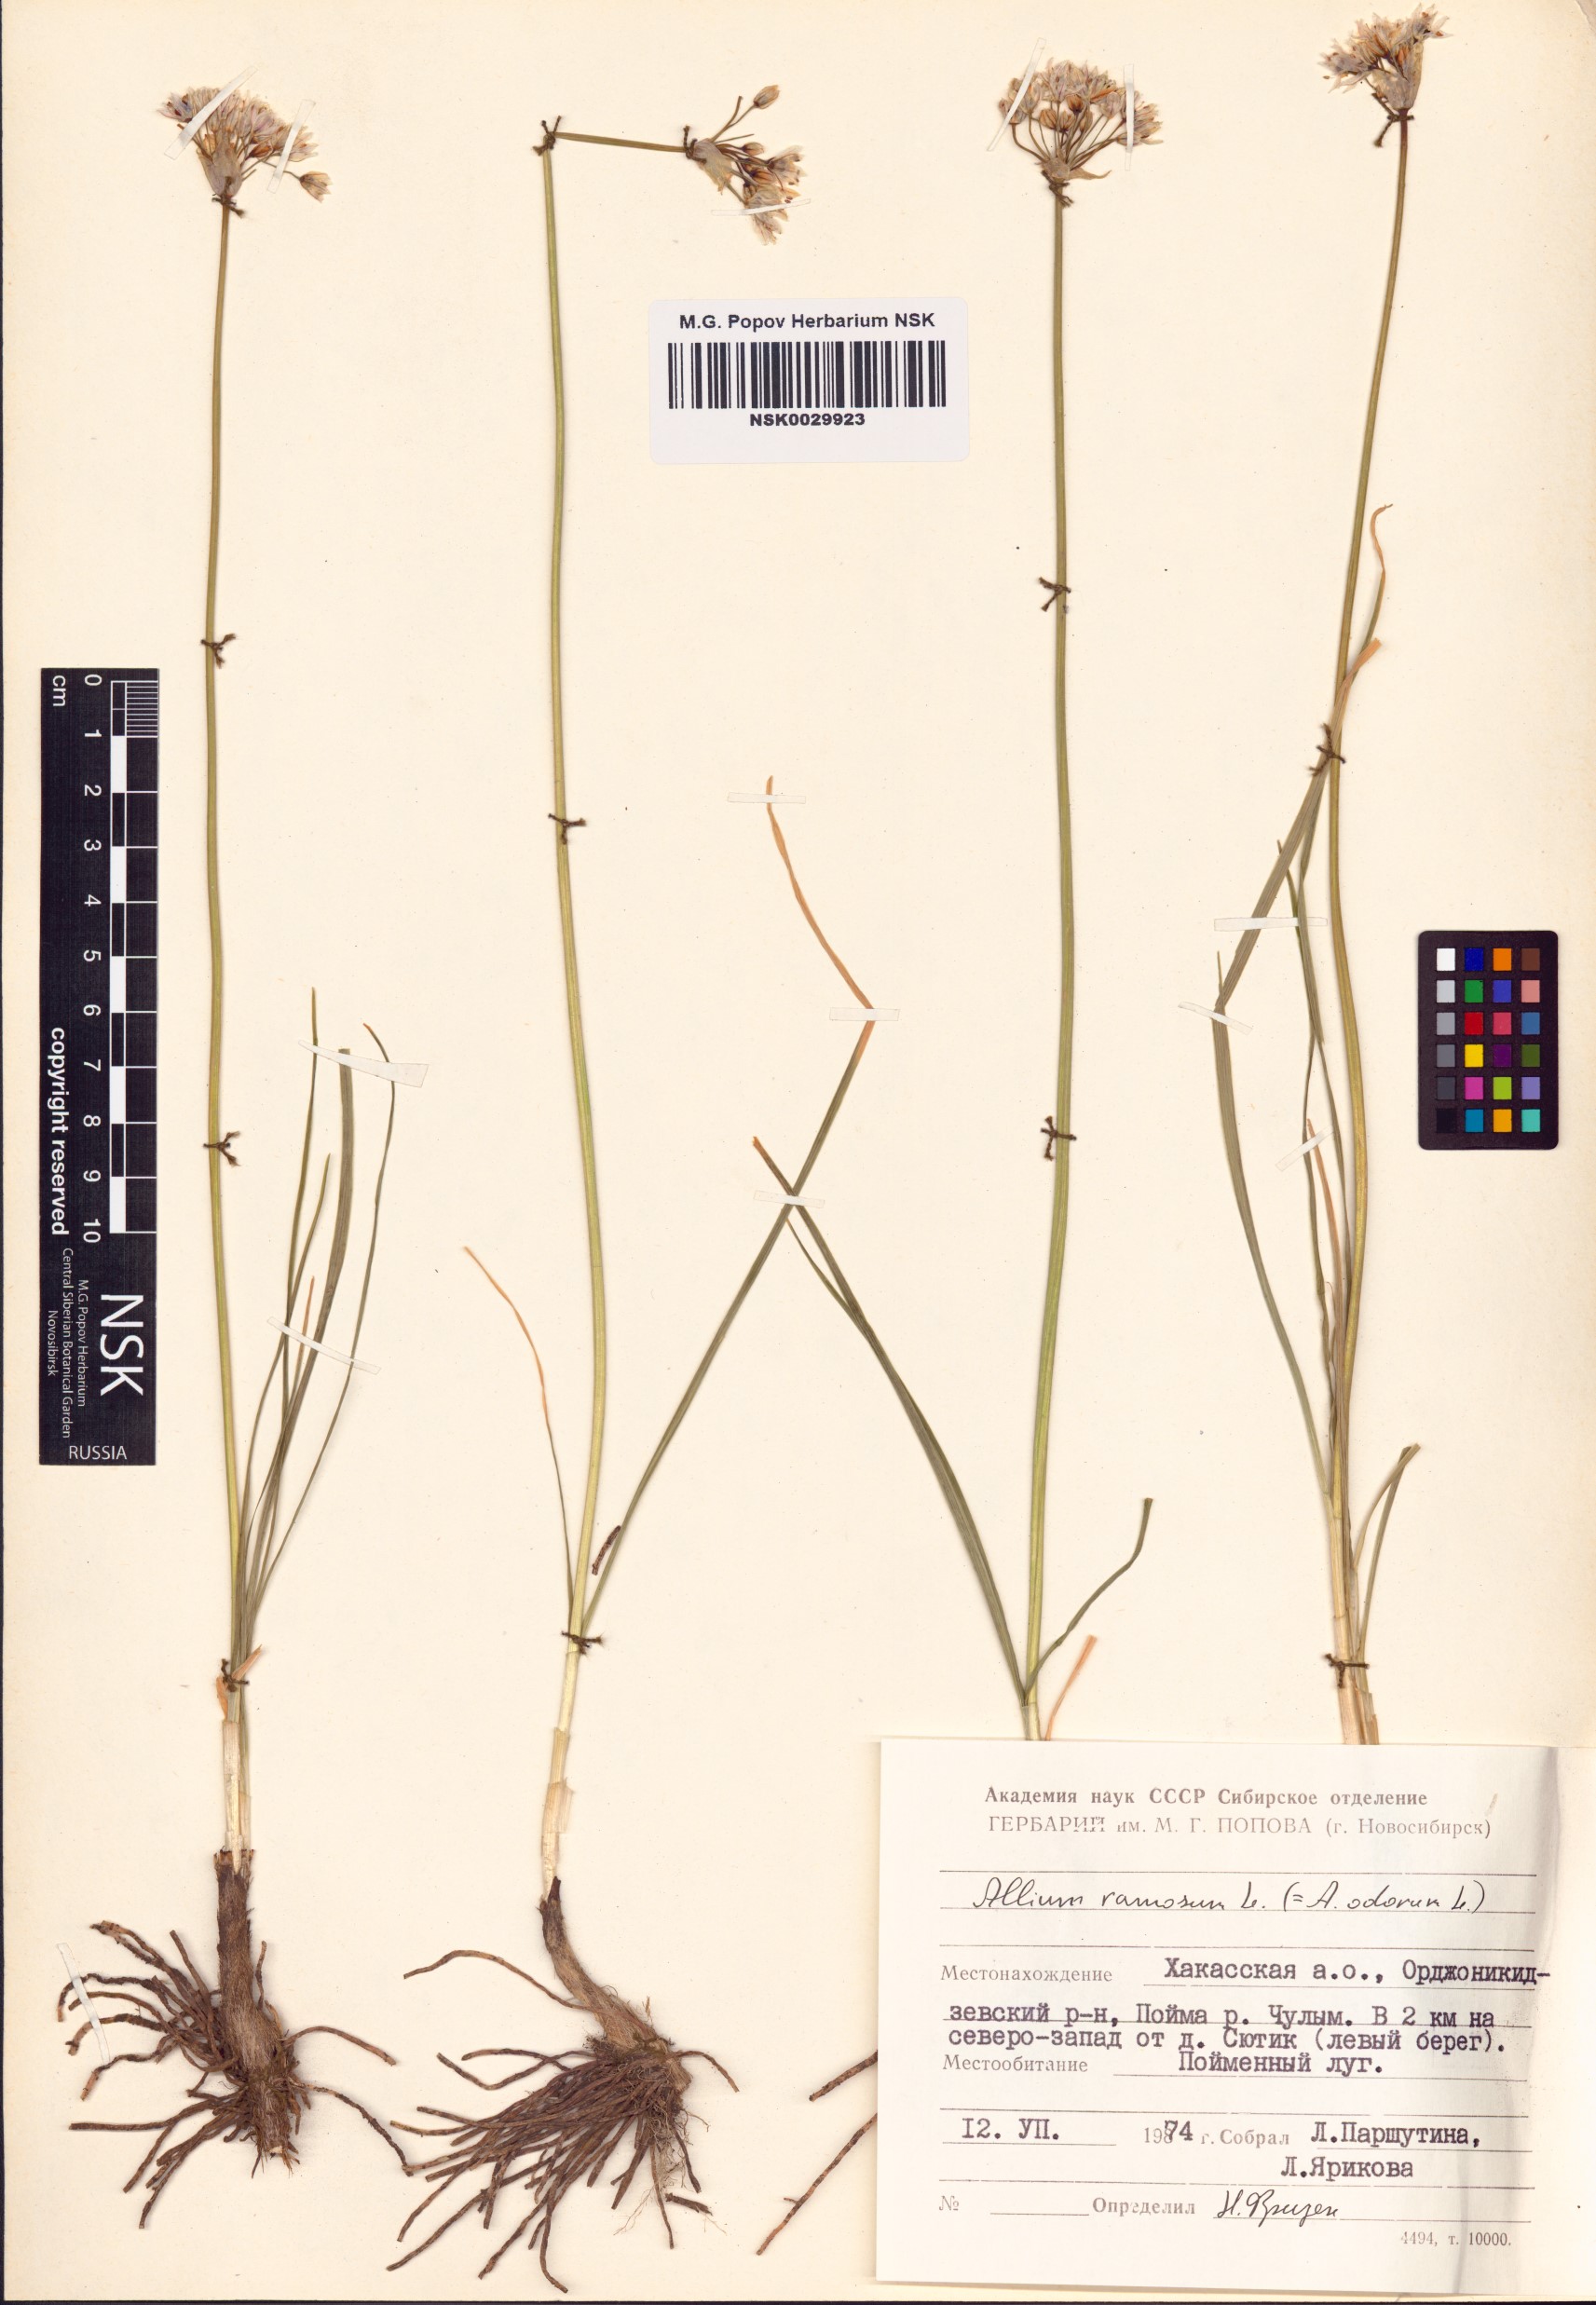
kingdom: Plantae
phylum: Tracheophyta
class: Liliopsida
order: Asparagales
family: Amaryllidaceae
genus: Allium
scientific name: Allium ramosum
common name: Fragrant garlic
